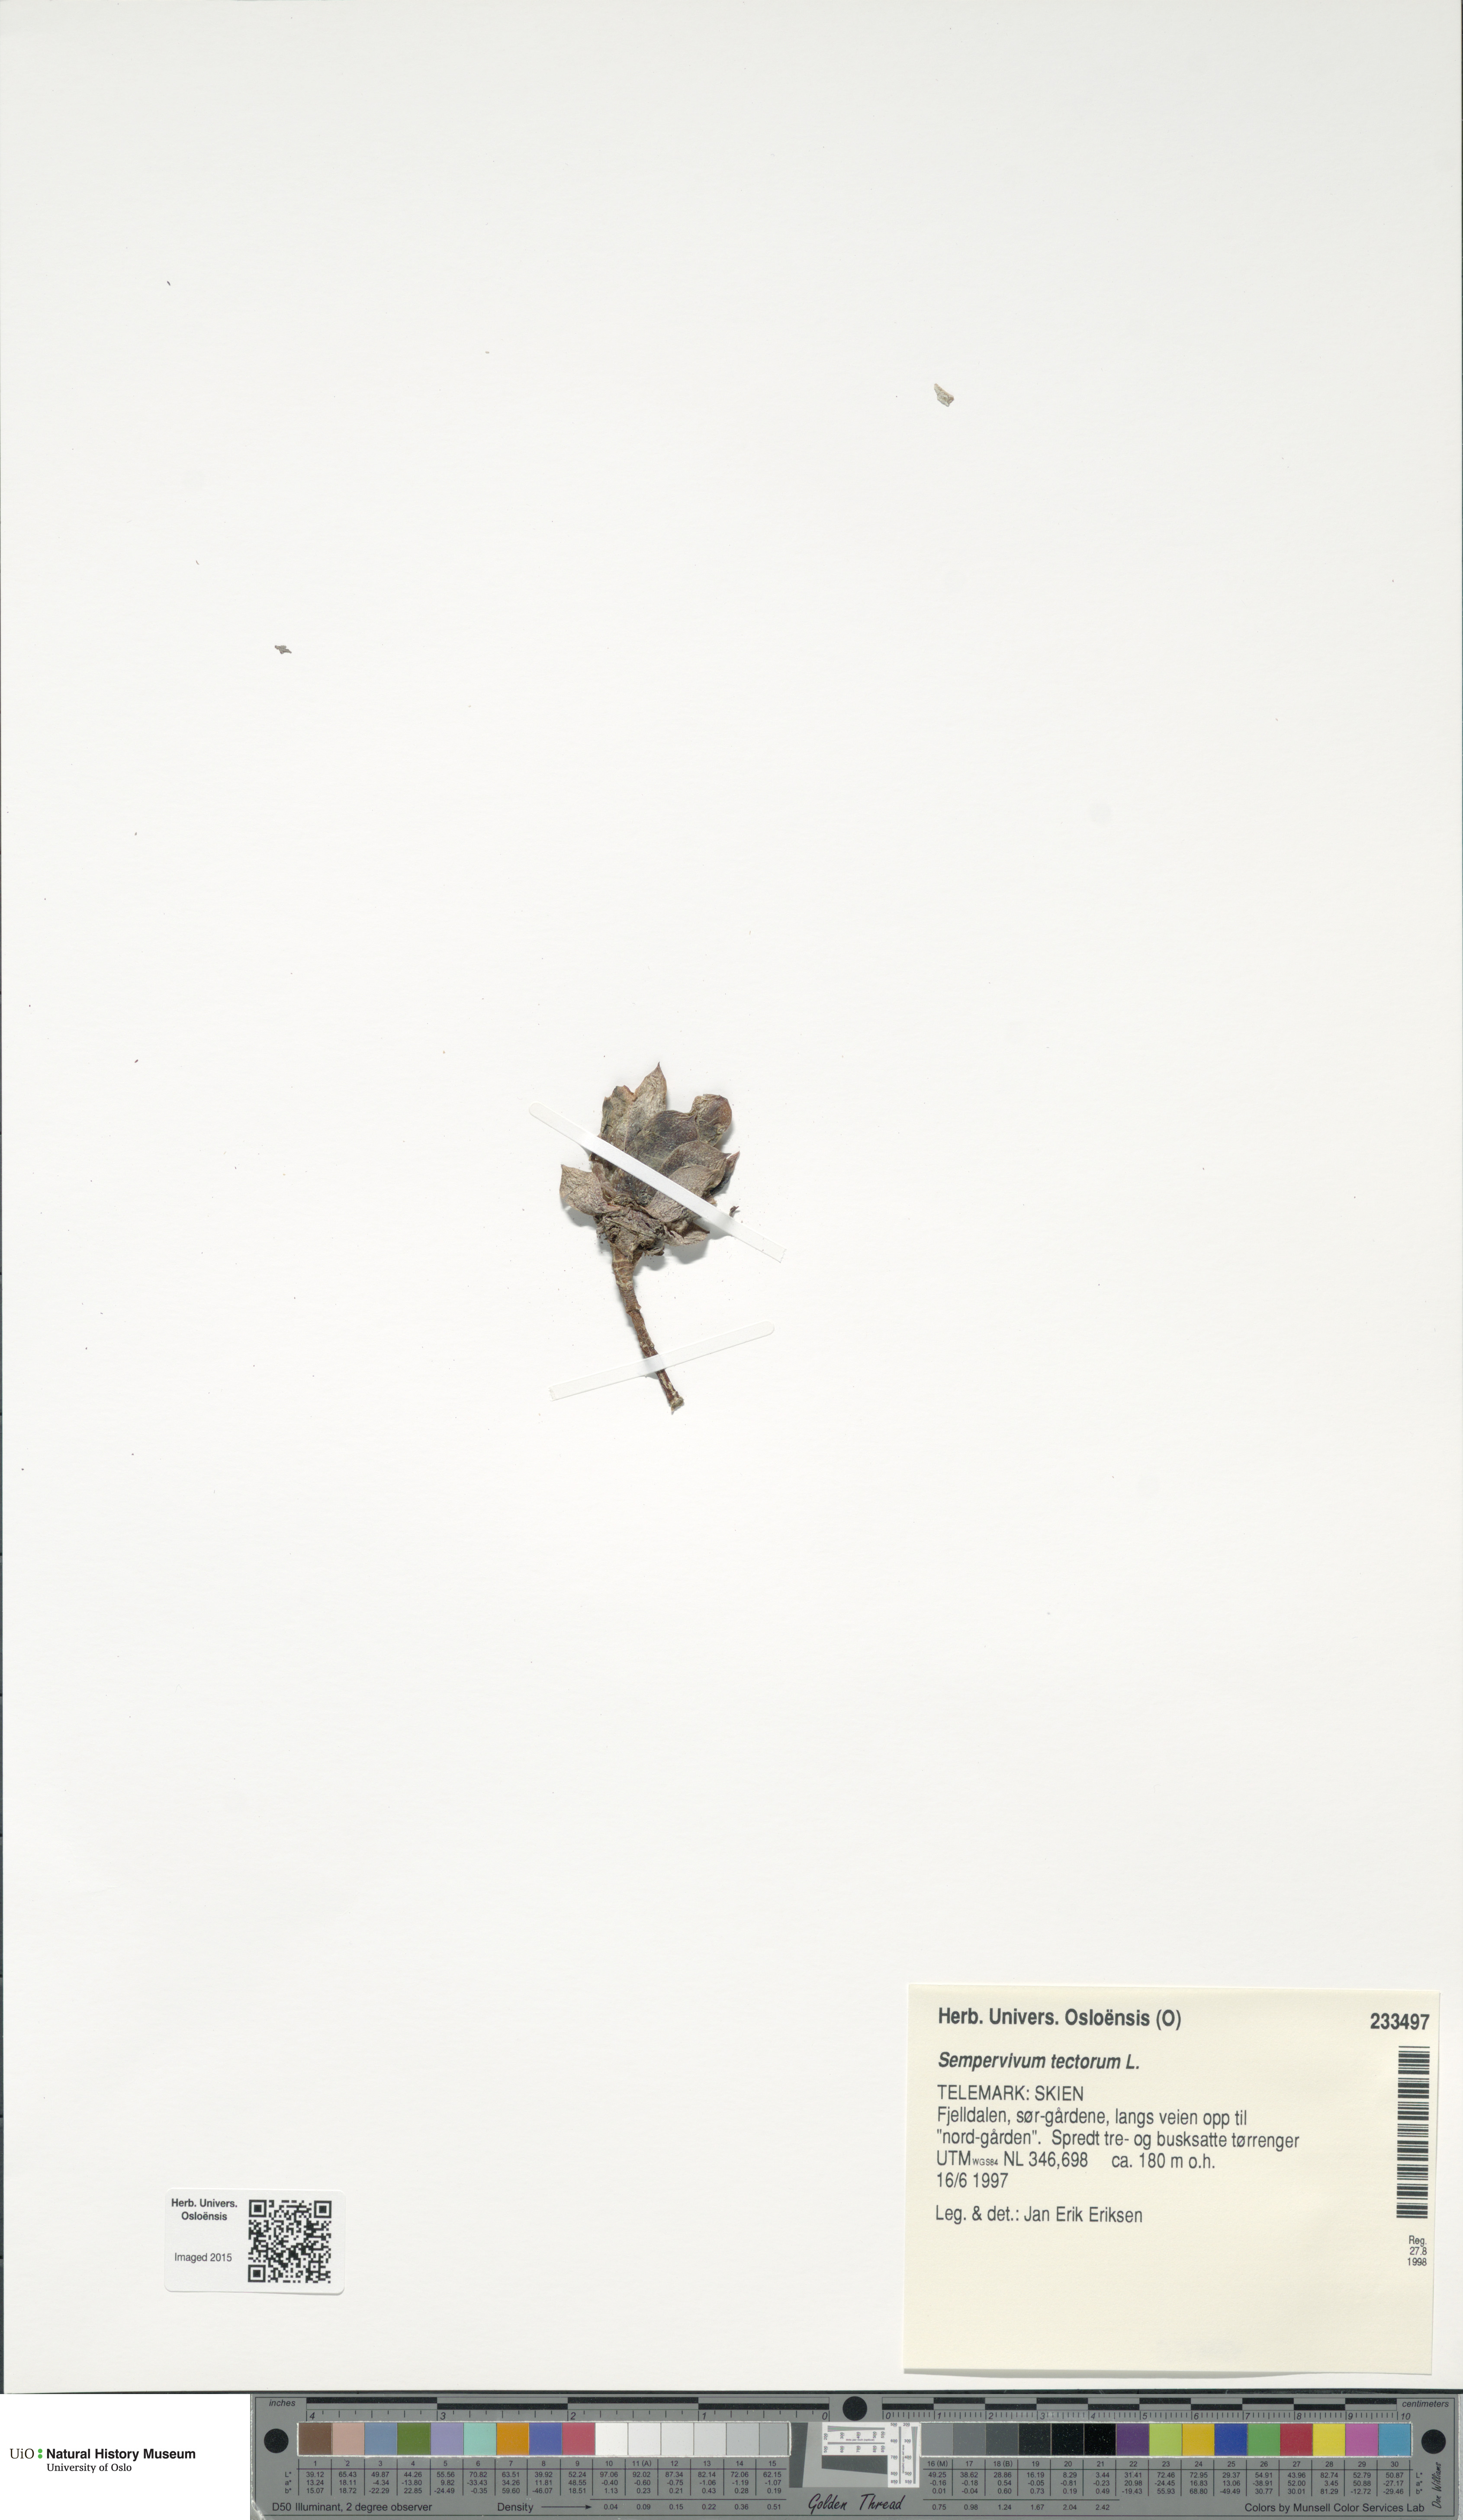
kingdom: Plantae
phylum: Tracheophyta
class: Magnoliopsida
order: Saxifragales
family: Crassulaceae
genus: Sempervivum
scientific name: Sempervivum tectorum
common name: House-leek
